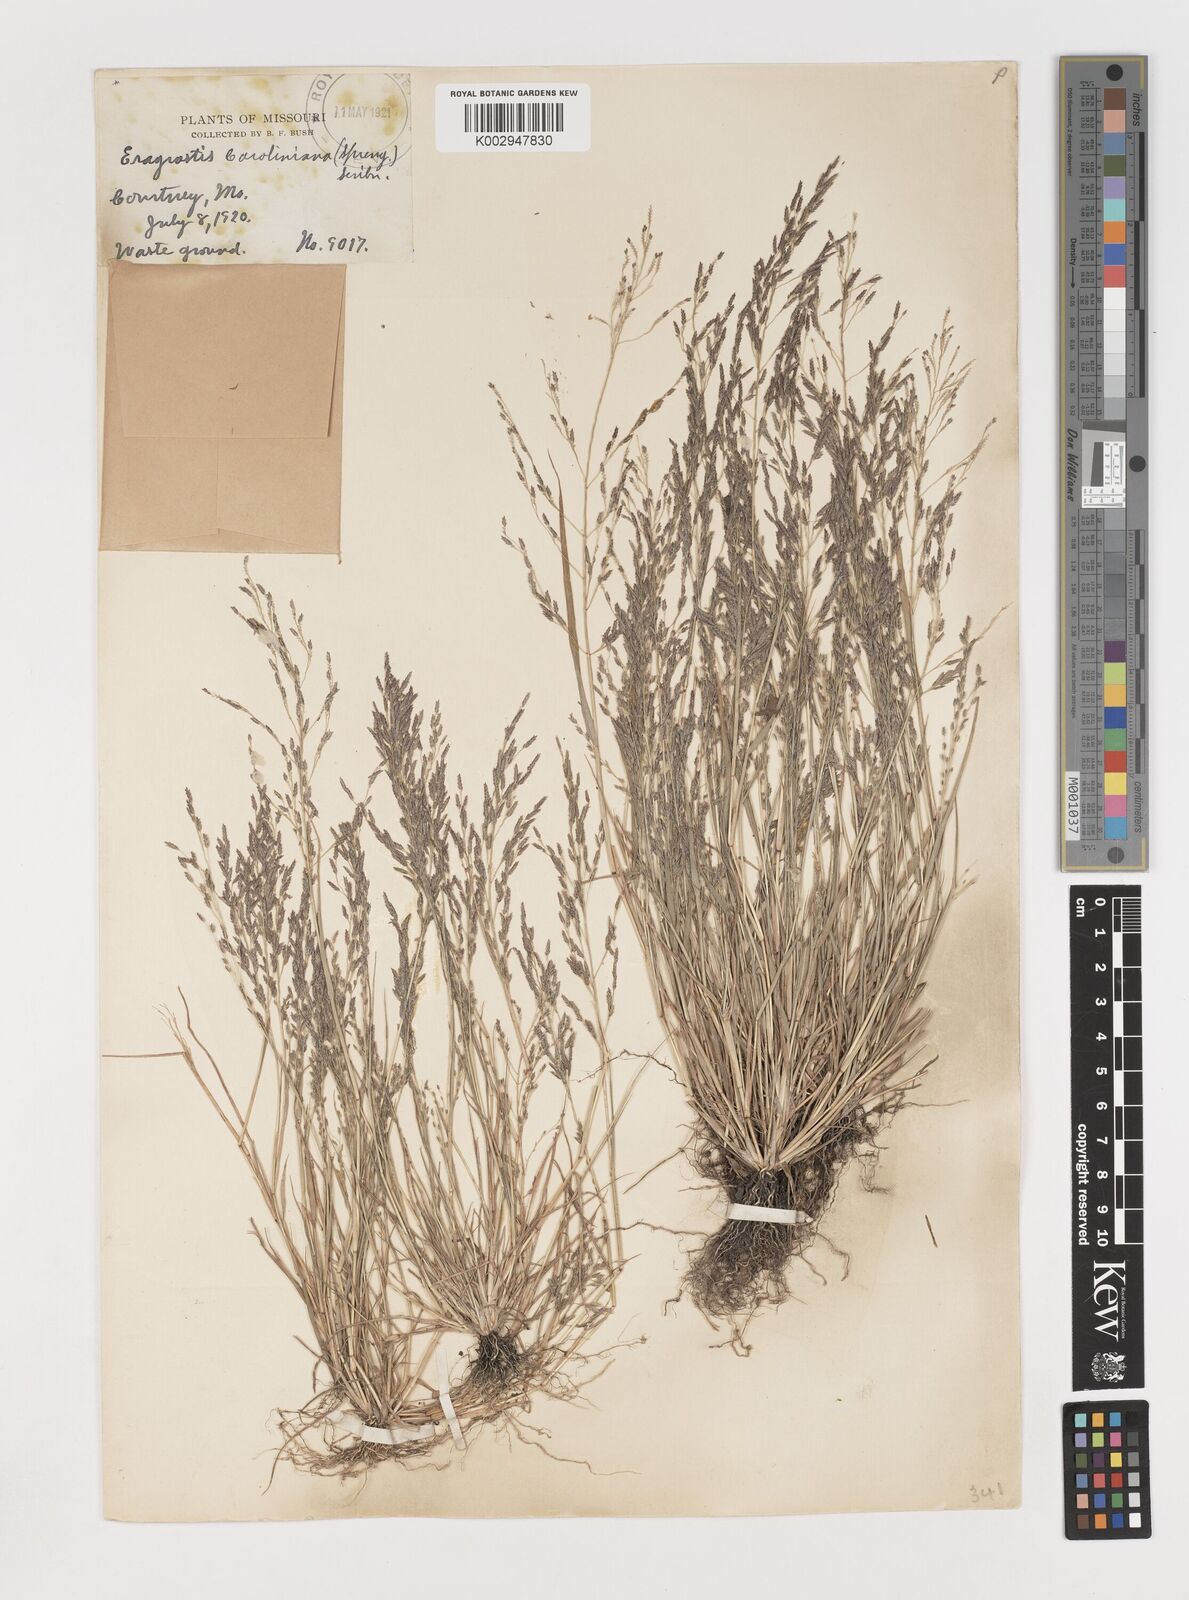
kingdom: Plantae
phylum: Tracheophyta
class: Liliopsida
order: Poales
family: Poaceae
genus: Eragrostis
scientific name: Eragrostis pectinacea
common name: Tufted lovegrass
